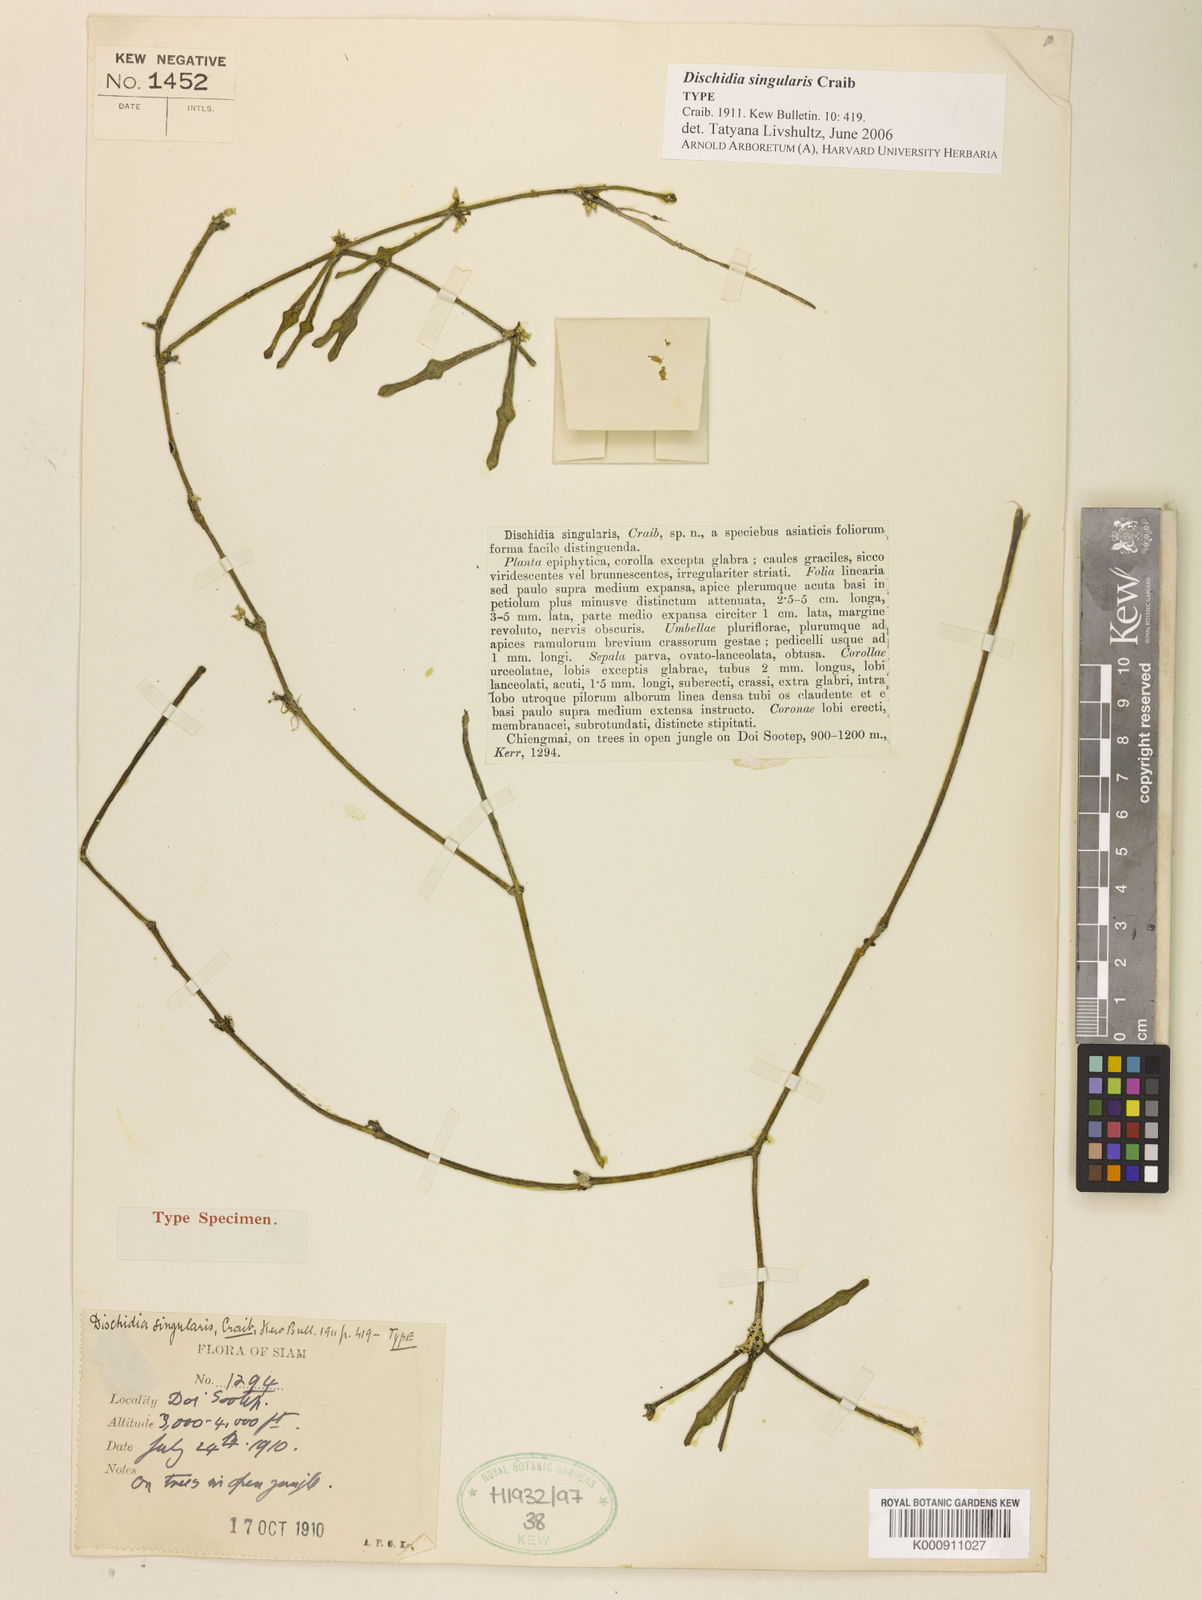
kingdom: Plantae
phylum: Tracheophyta
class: Magnoliopsida
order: Gentianales
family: Apocynaceae
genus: Dischidia
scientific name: Dischidia singularis
